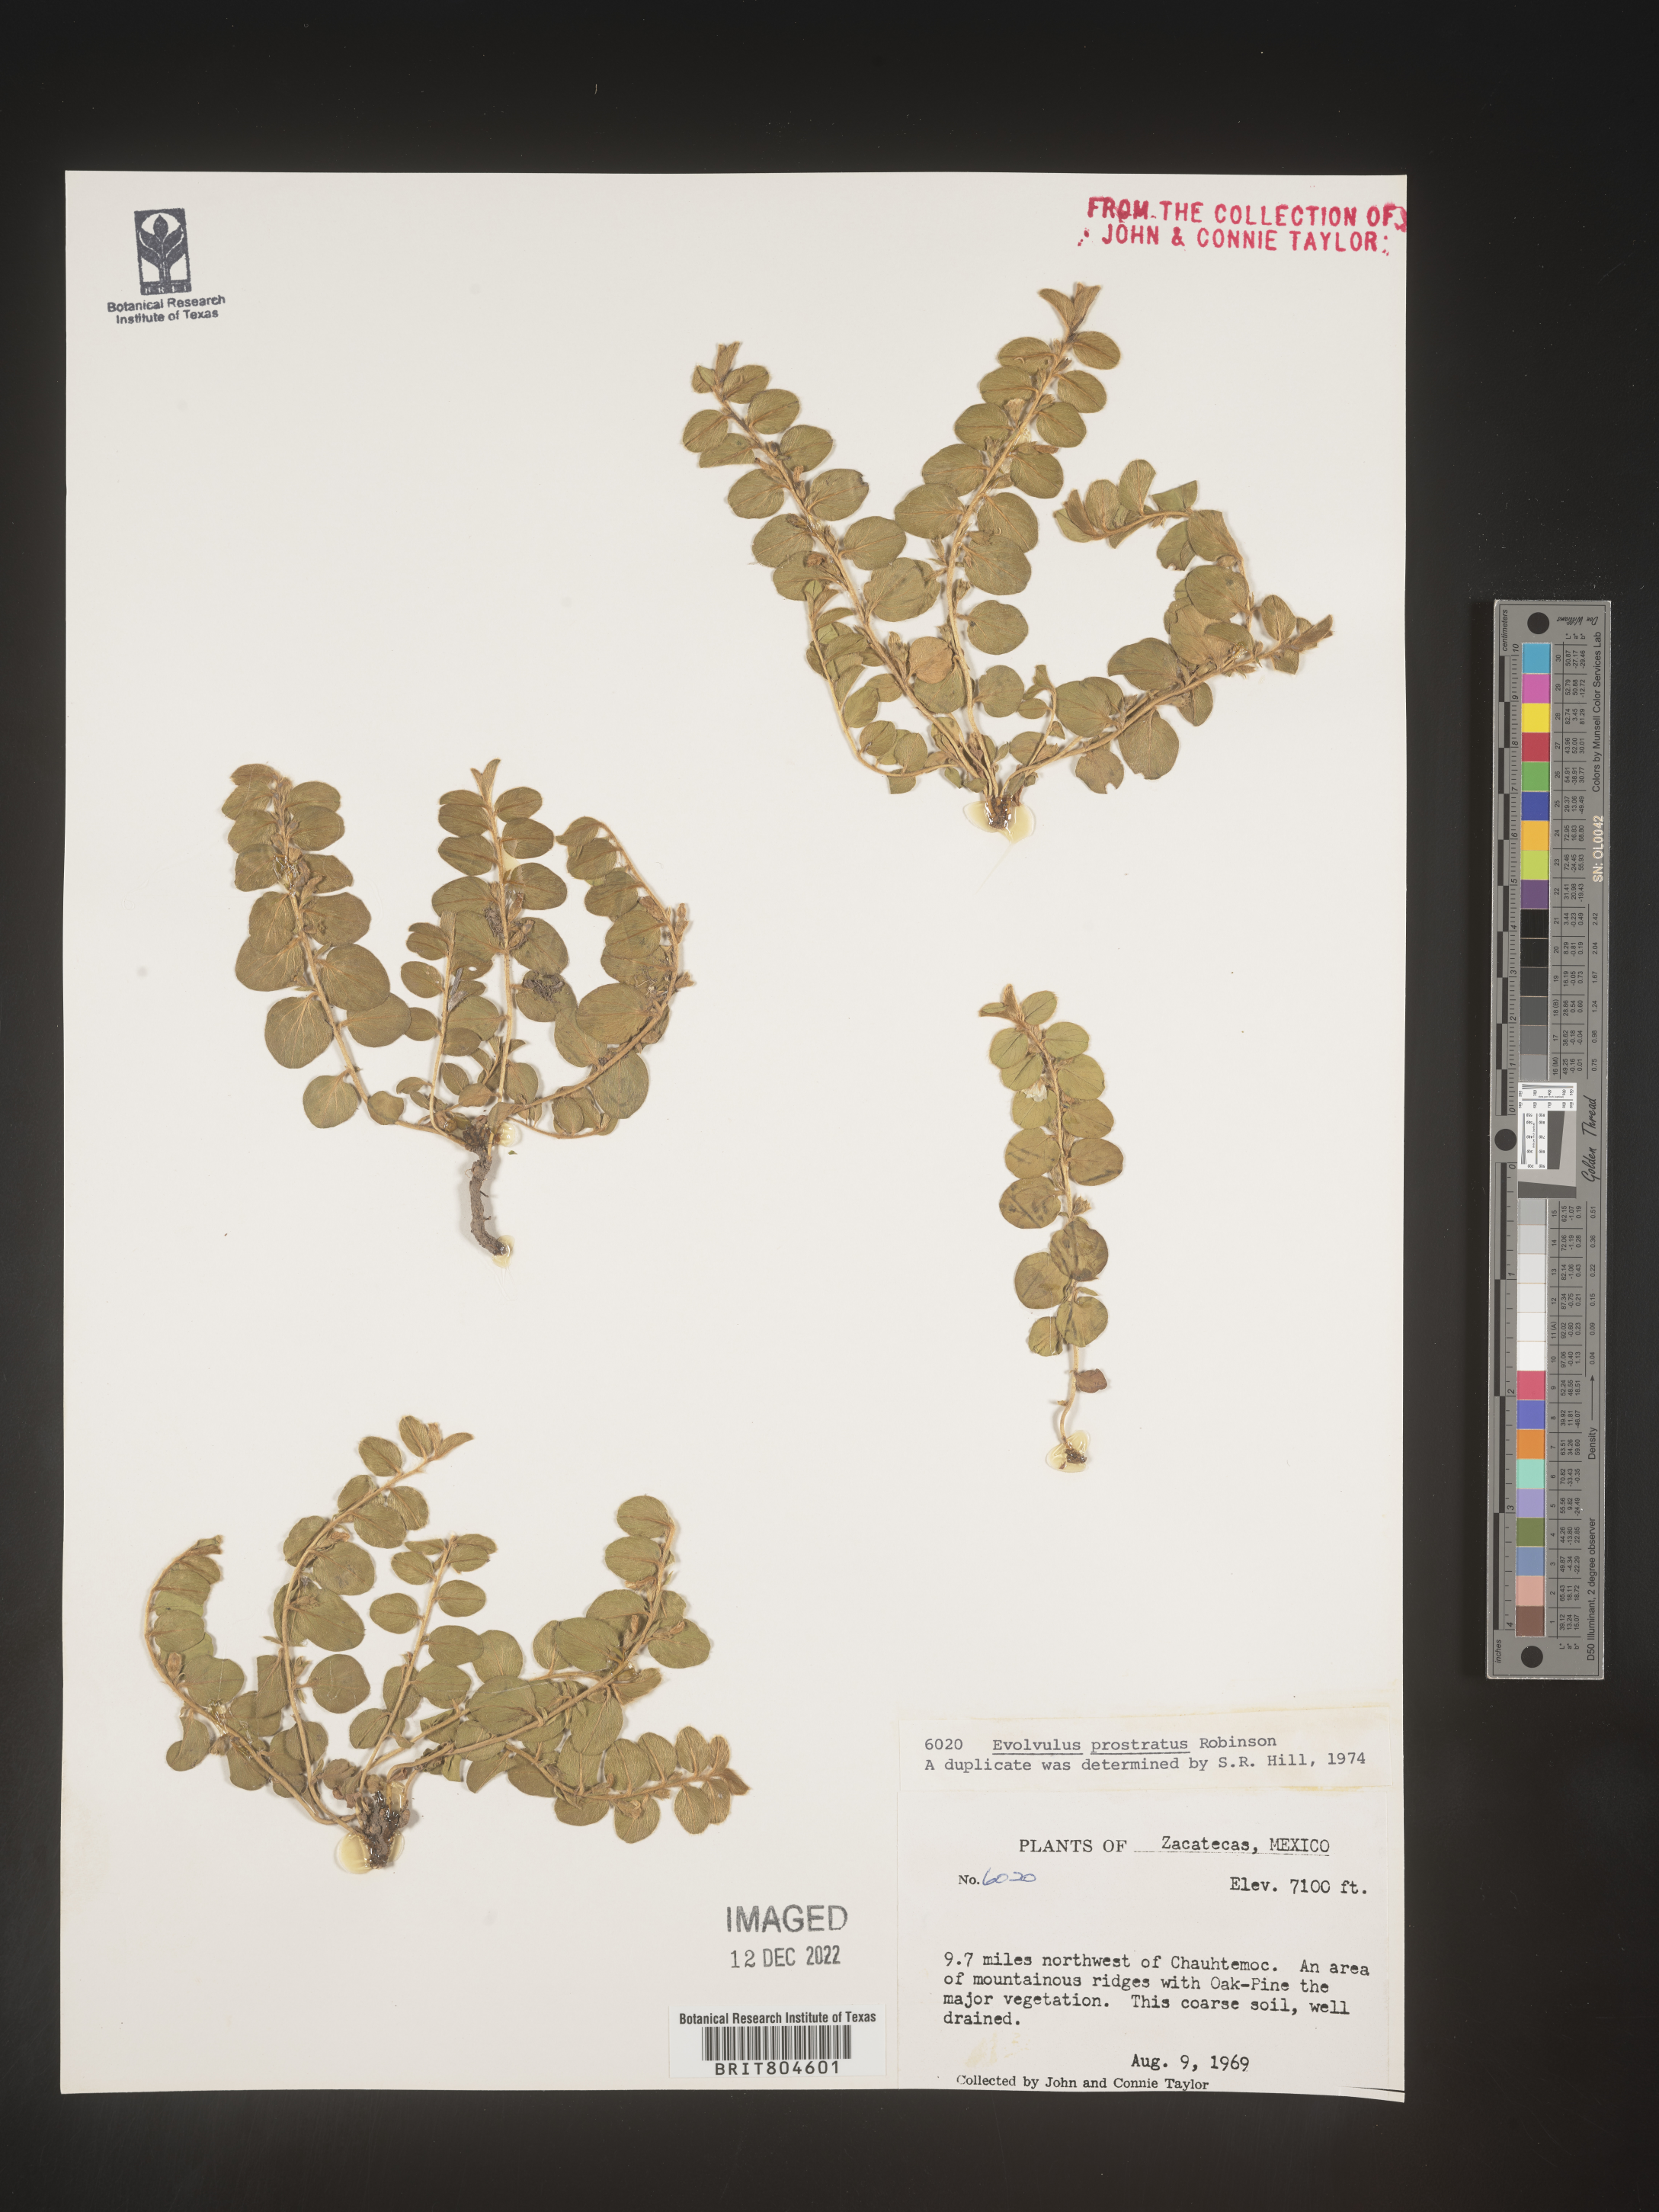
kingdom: Plantae
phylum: Tracheophyta
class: Magnoliopsida
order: Solanales
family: Convolvulaceae
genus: Evolvulus
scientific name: Evolvulus
